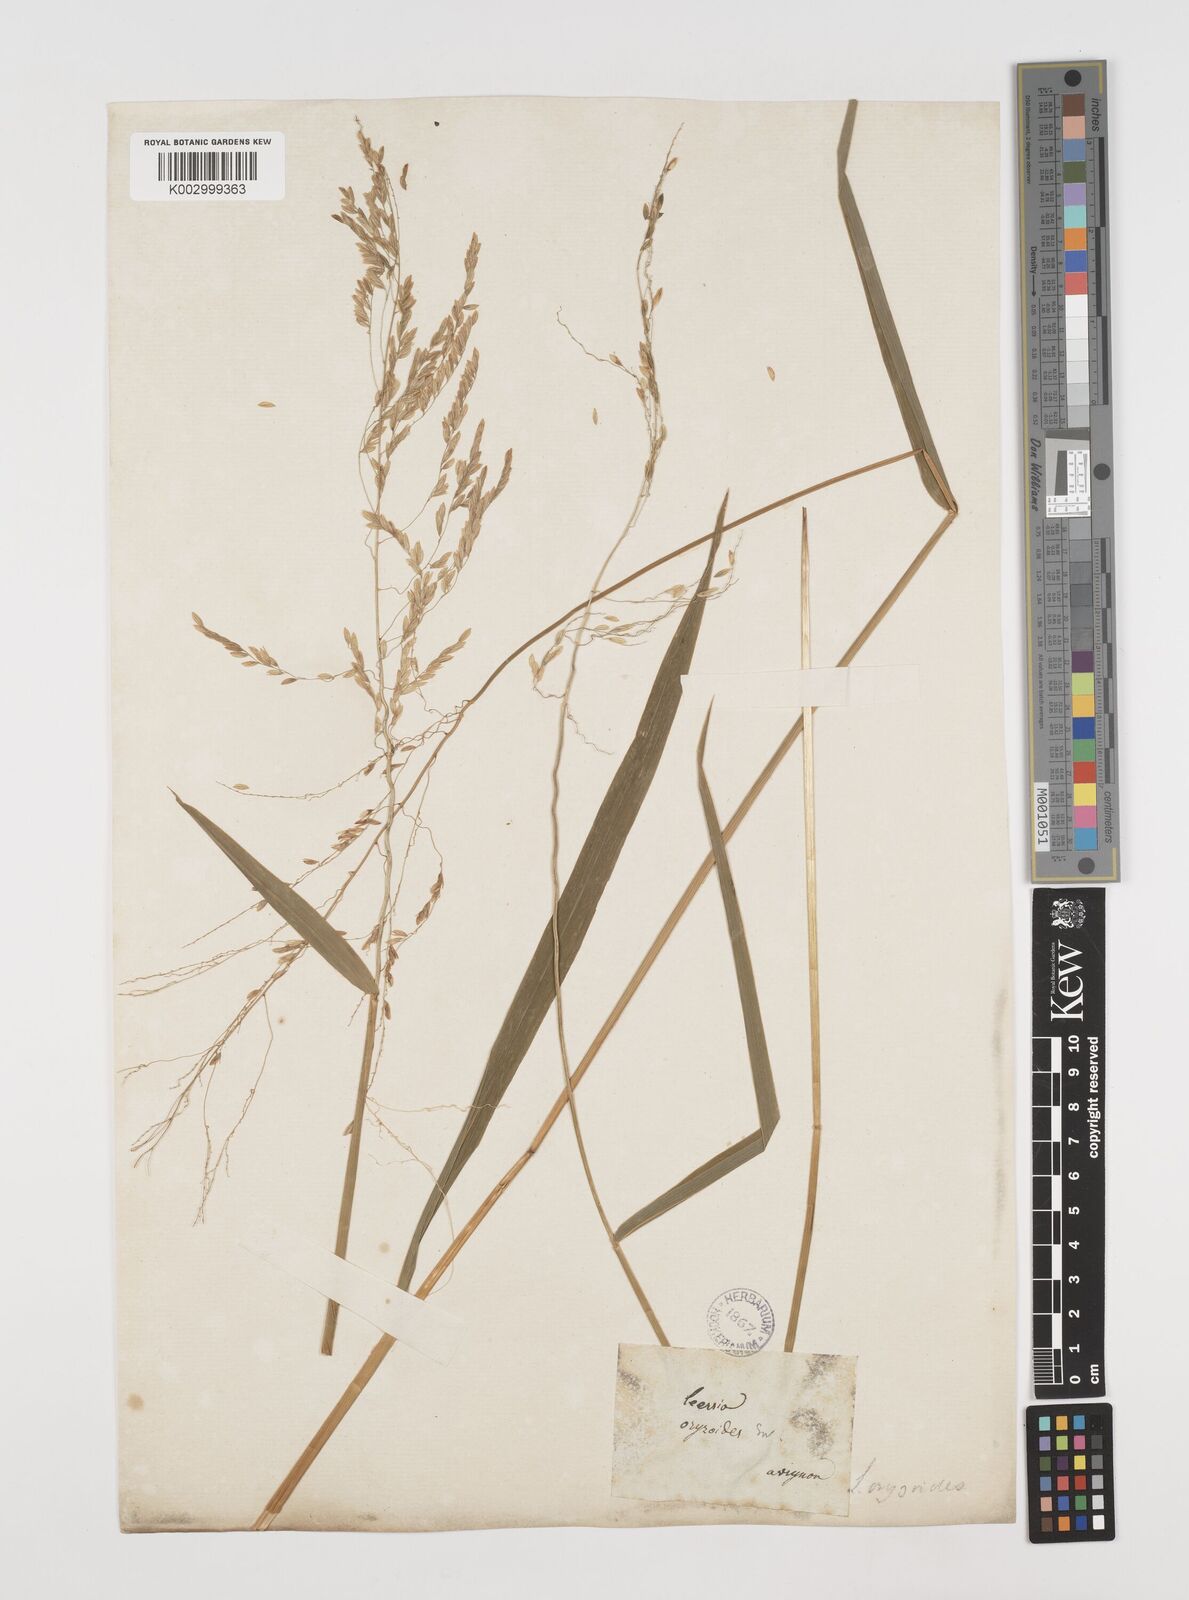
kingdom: Plantae
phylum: Tracheophyta
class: Liliopsida
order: Poales
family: Poaceae
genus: Leersia
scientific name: Leersia oryzoides
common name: Cut-grass
